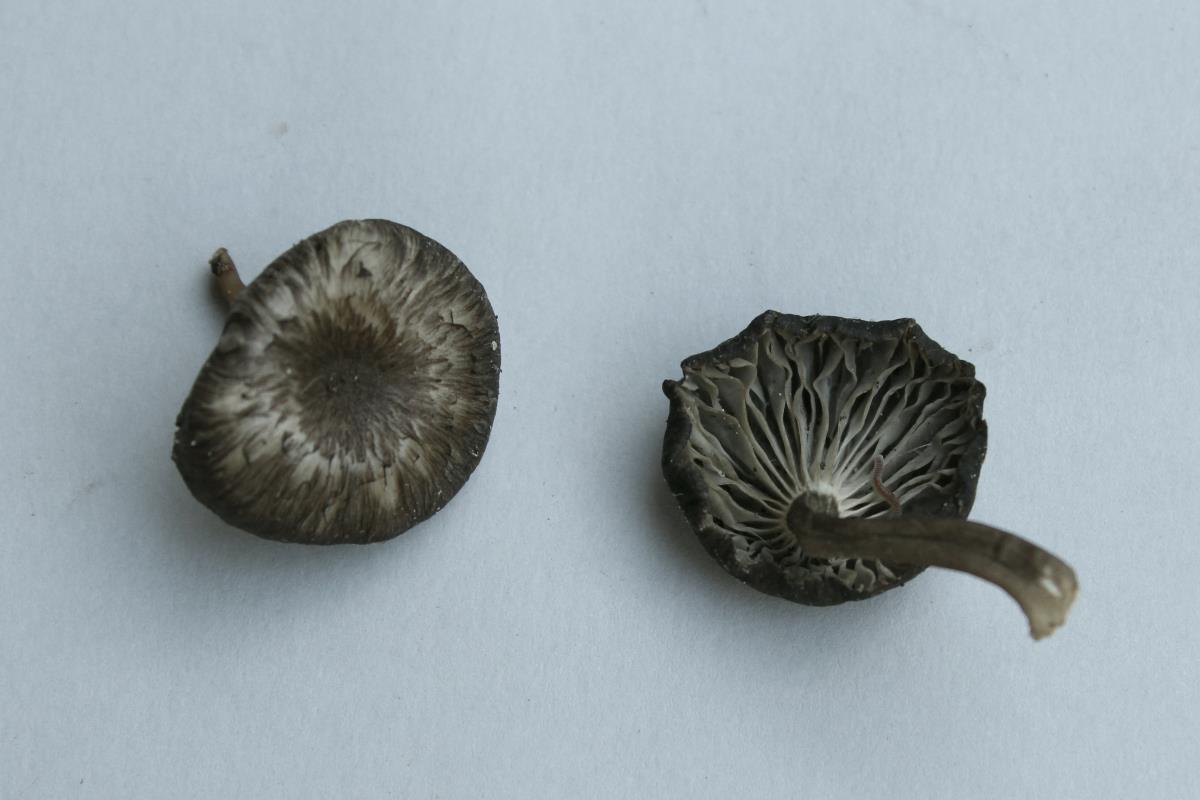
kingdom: Fungi
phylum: Basidiomycota
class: Agaricomycetes
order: Agaricales
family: Pseudoclitocybaceae
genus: Pseudoclitocybe
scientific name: Pseudoclitocybe foetida
